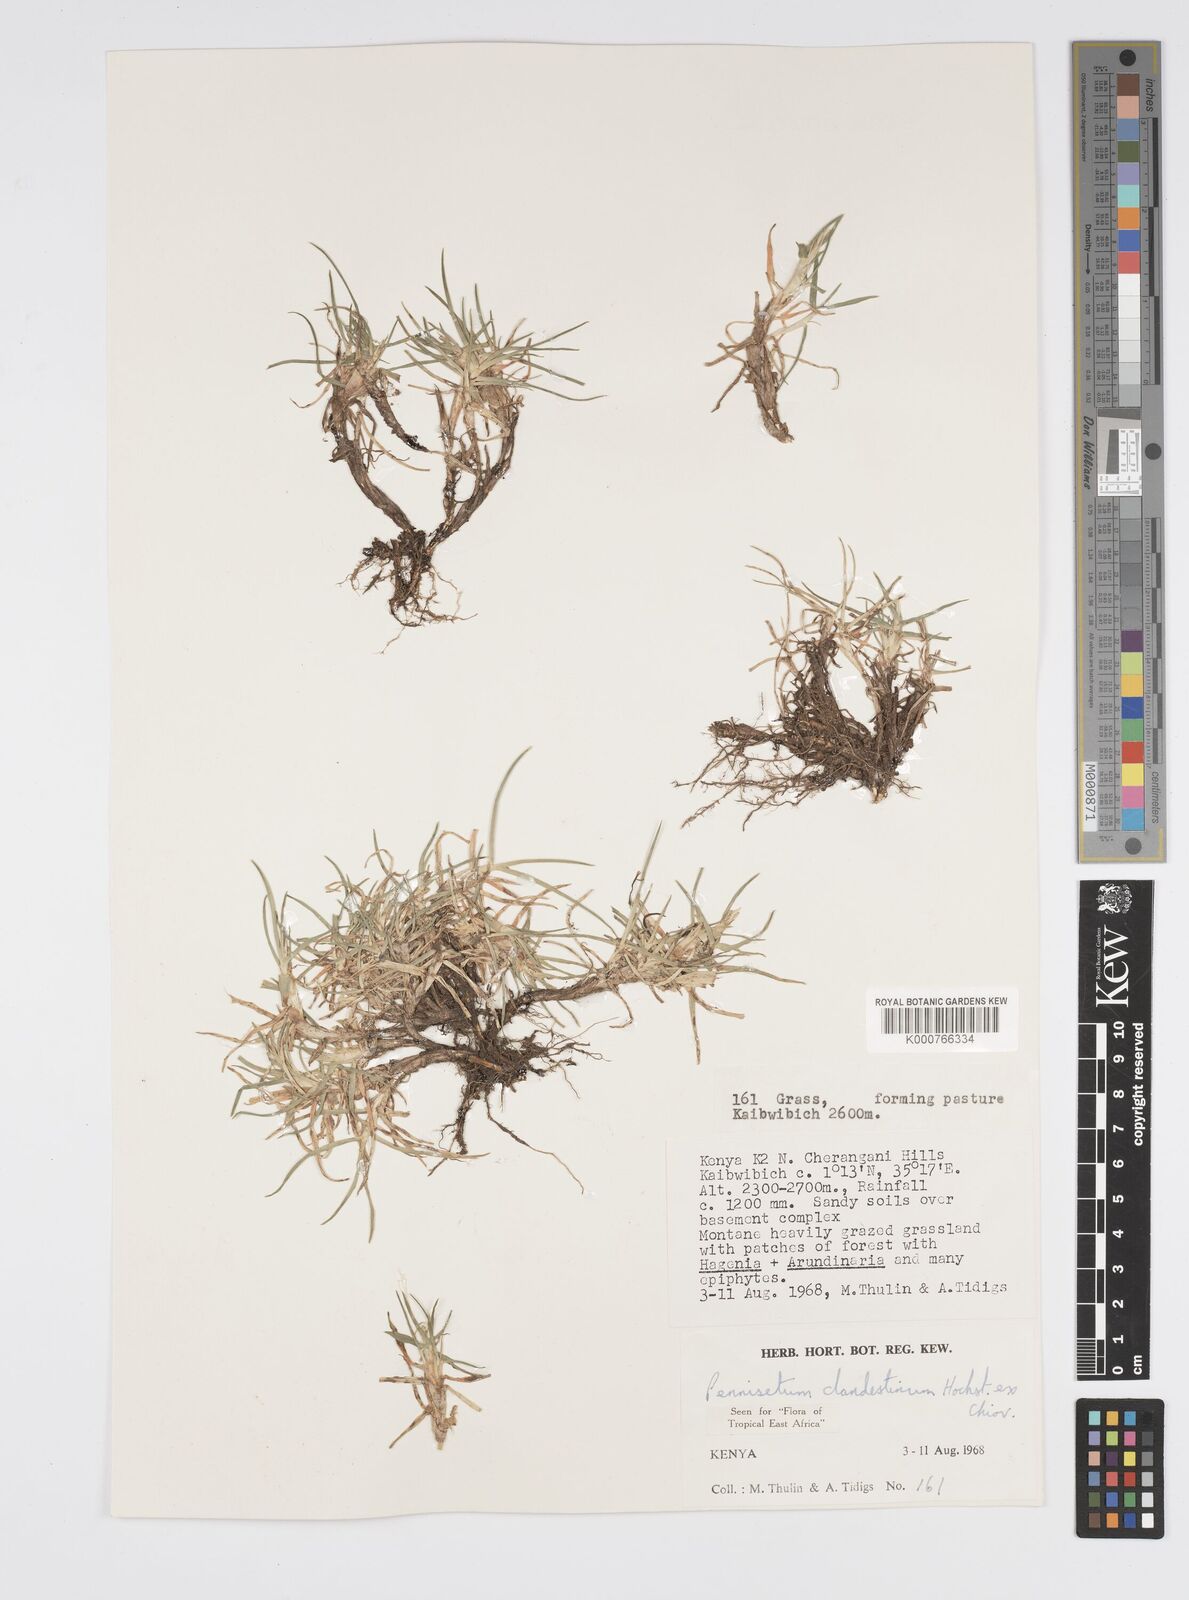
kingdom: Plantae
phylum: Tracheophyta
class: Liliopsida
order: Poales
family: Poaceae
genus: Cenchrus
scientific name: Cenchrus clandestinus
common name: Kikuyugrass
